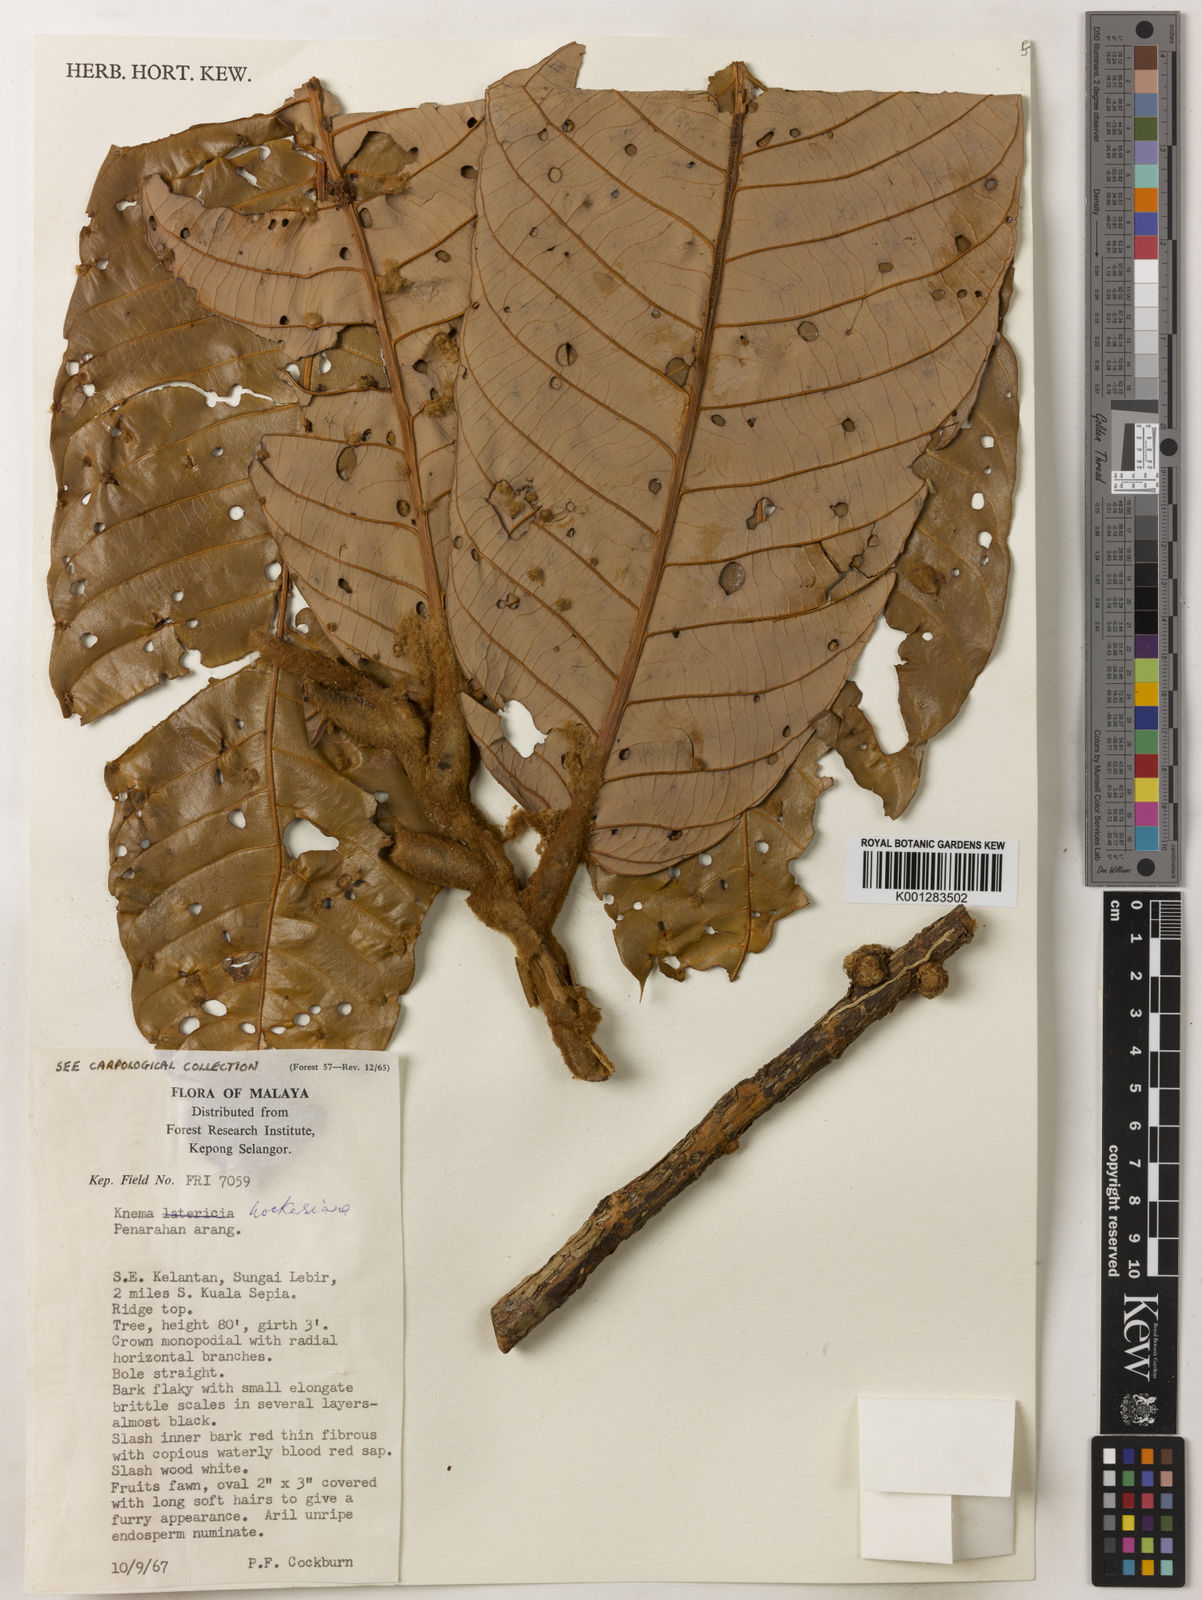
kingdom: Plantae
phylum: Tracheophyta
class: Magnoliopsida
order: Magnoliales
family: Myristicaceae
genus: Knema
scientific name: Knema hookeriana
